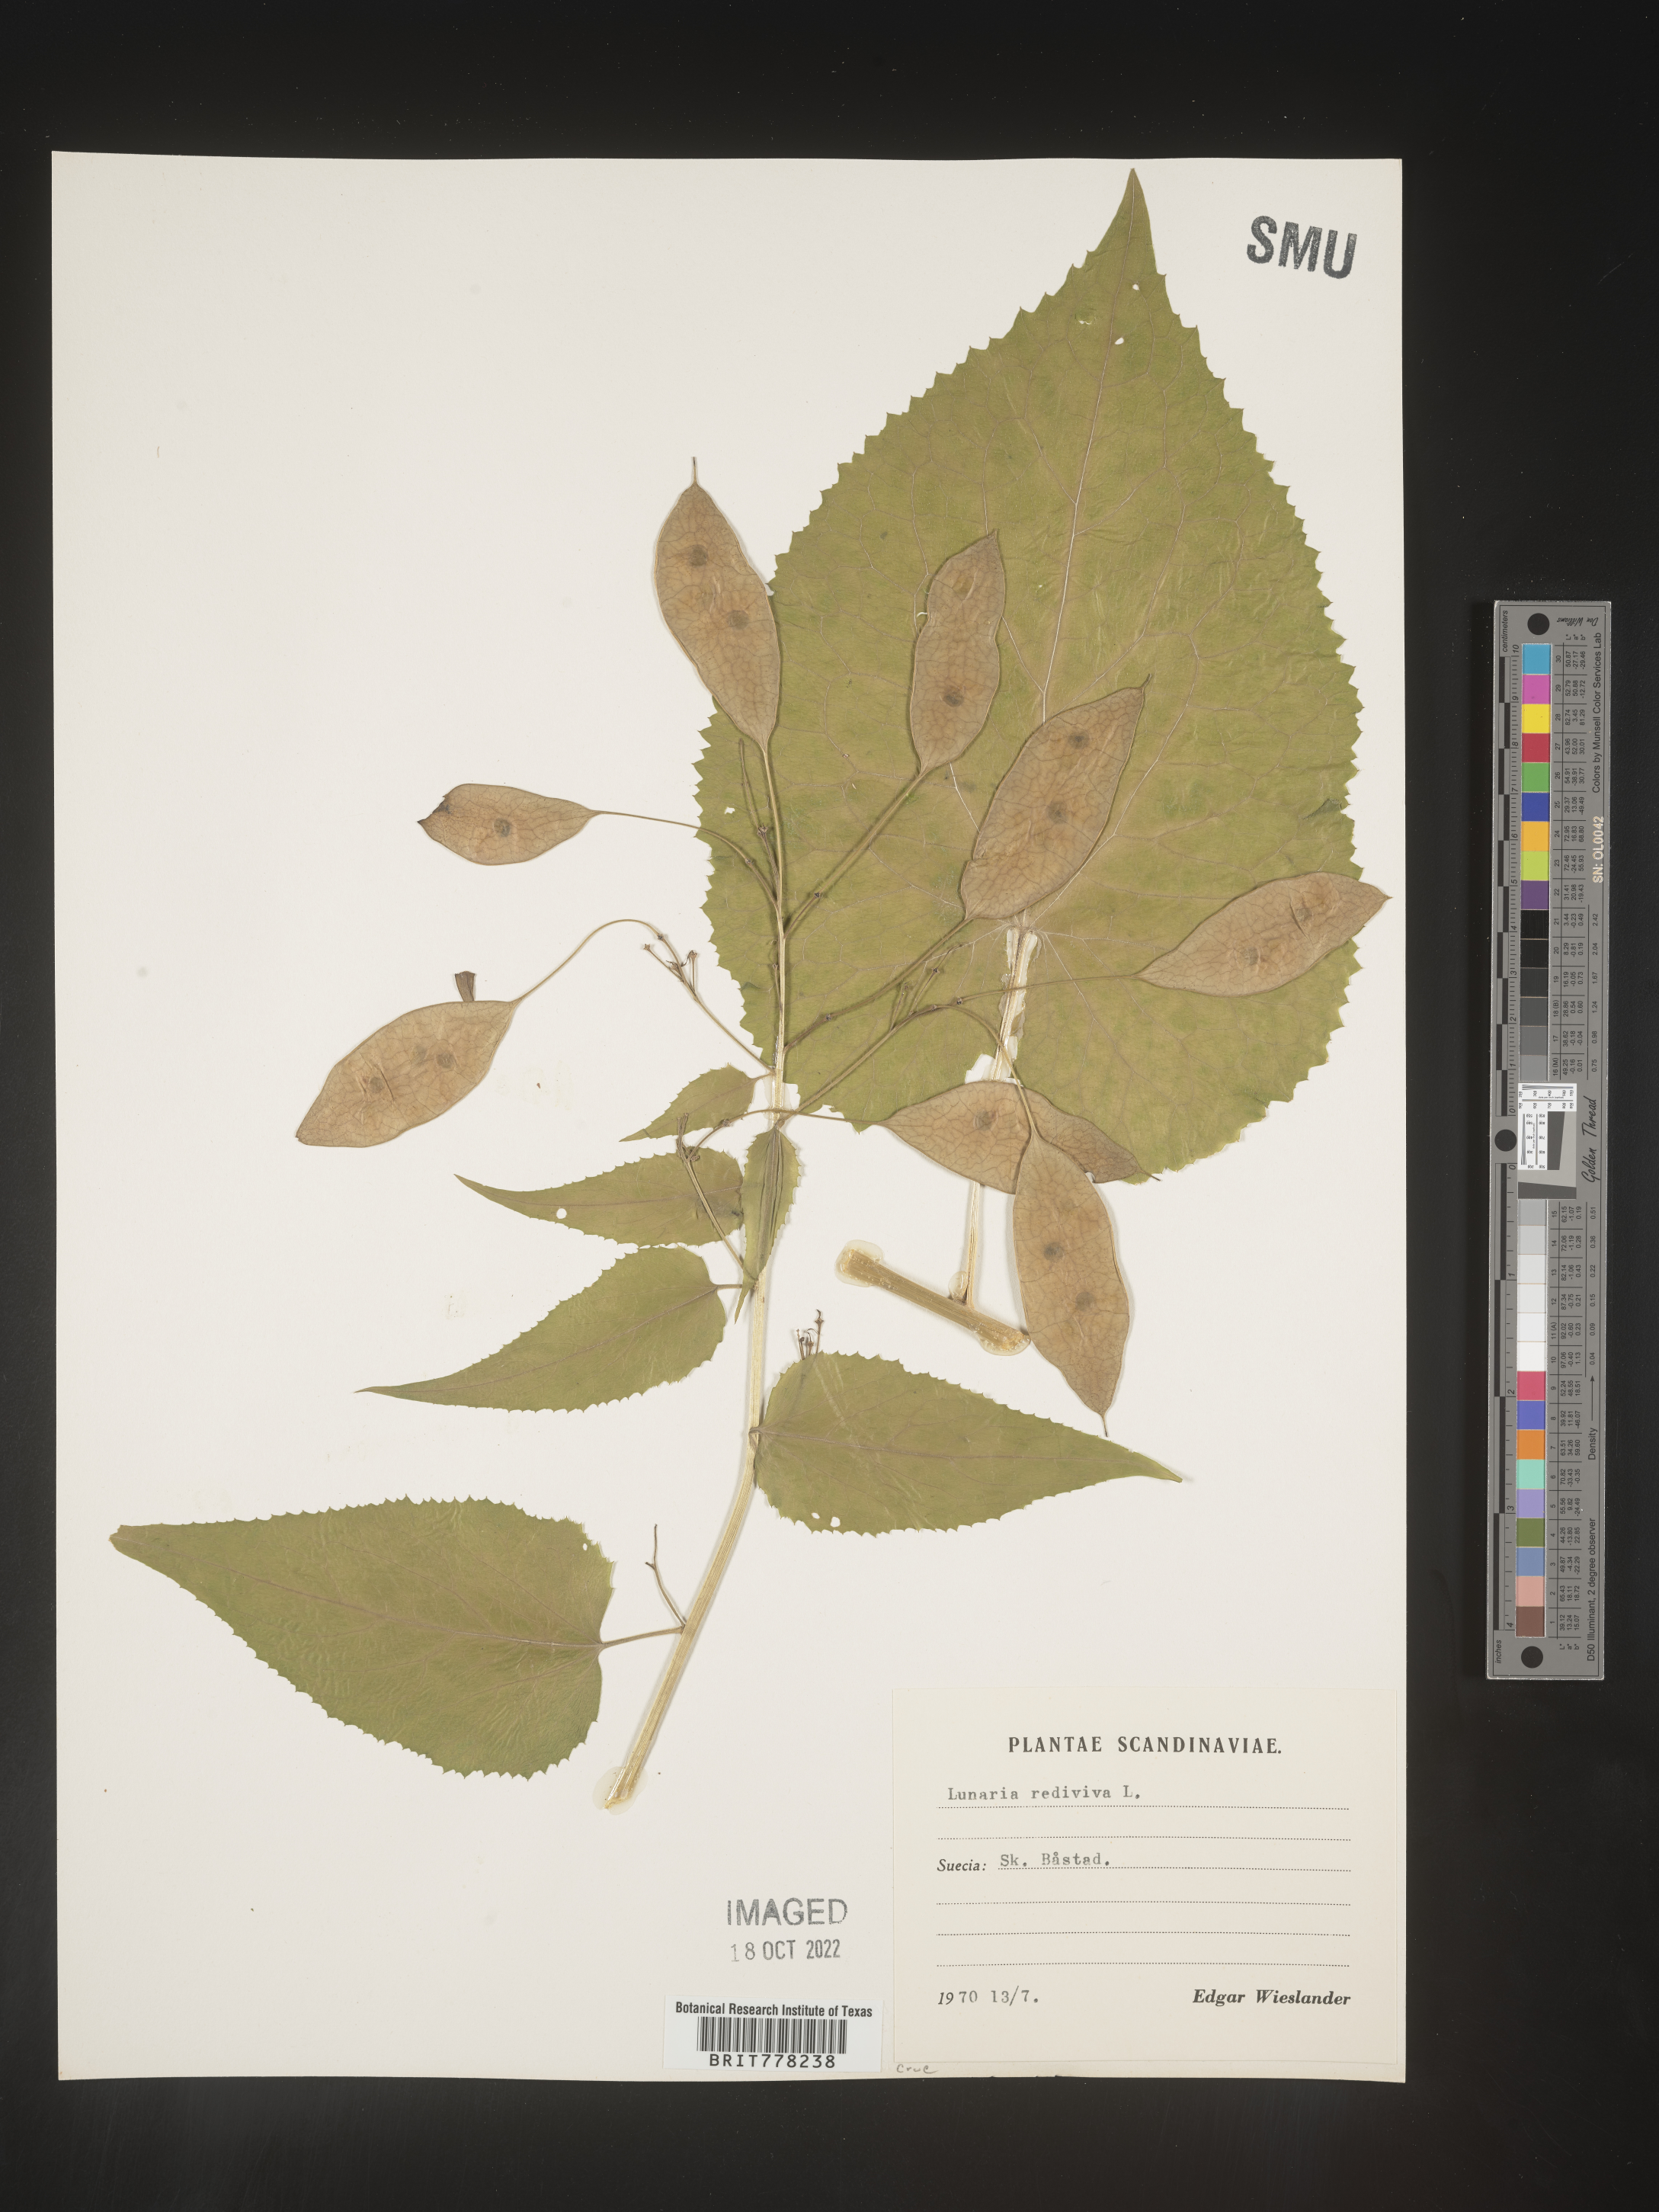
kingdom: Plantae
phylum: Tracheophyta
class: Magnoliopsida
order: Brassicales
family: Brassicaceae
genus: Lunaria
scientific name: Lunaria
